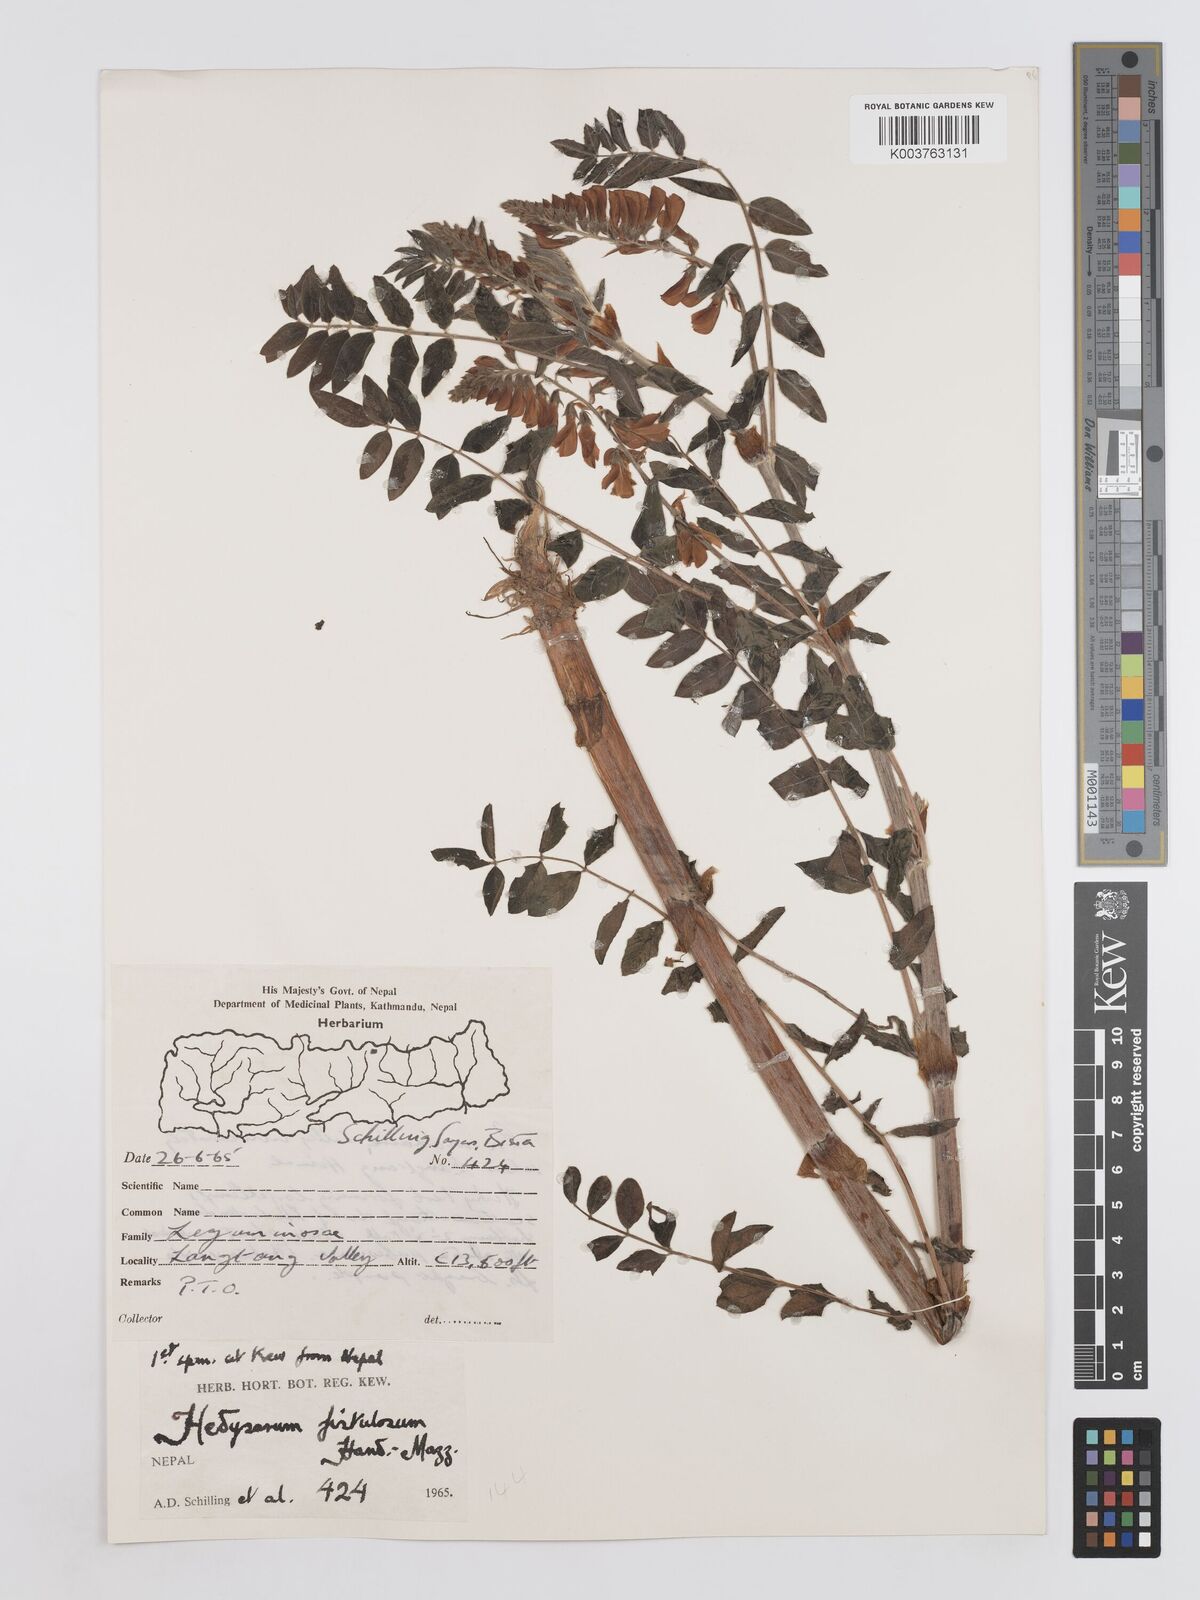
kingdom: Plantae
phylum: Tracheophyta
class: Magnoliopsida
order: Fabales
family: Fabaceae
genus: Hedysarum
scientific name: Hedysarum fistulosum
